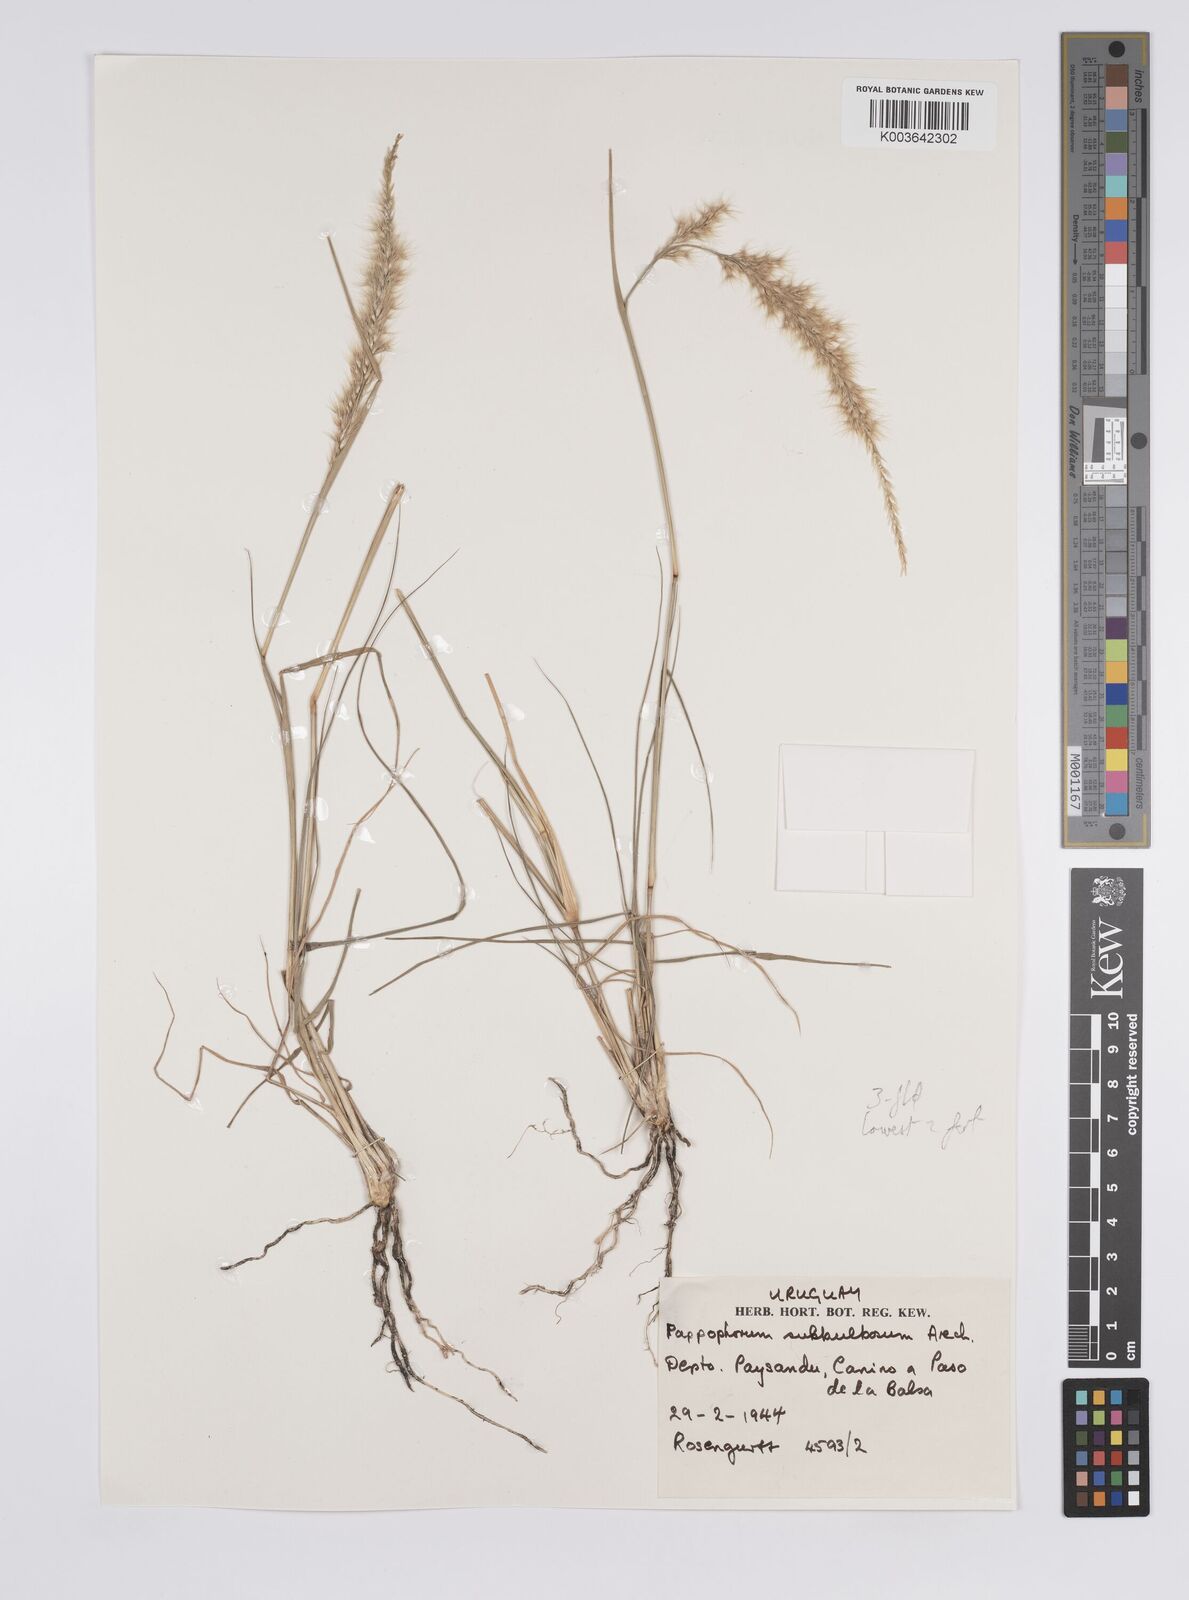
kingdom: Plantae
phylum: Tracheophyta
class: Liliopsida
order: Poales
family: Poaceae
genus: Pappophorum
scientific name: Pappophorum mucronulatum
